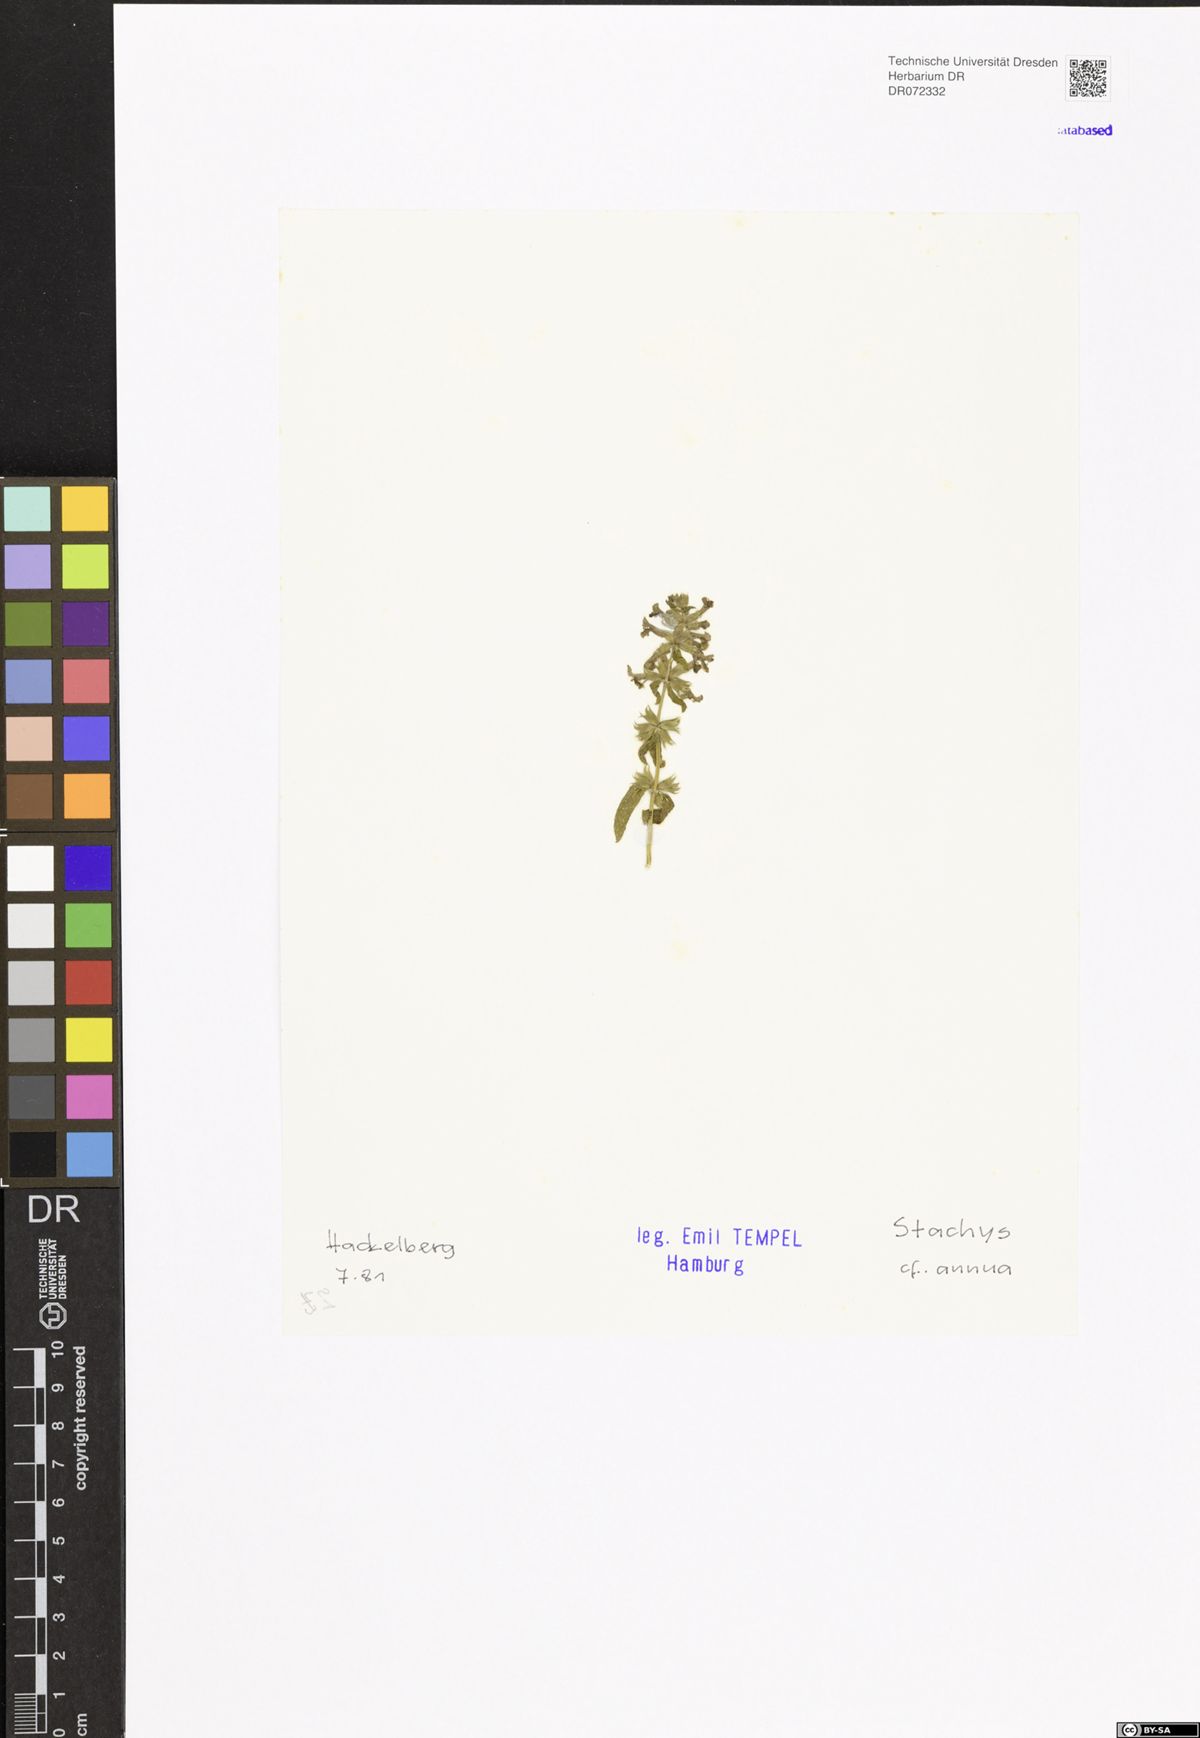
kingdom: Plantae
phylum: Tracheophyta
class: Magnoliopsida
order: Lamiales
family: Lamiaceae
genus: Stachys
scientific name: Stachys annua
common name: Annual yellow-woundwort
